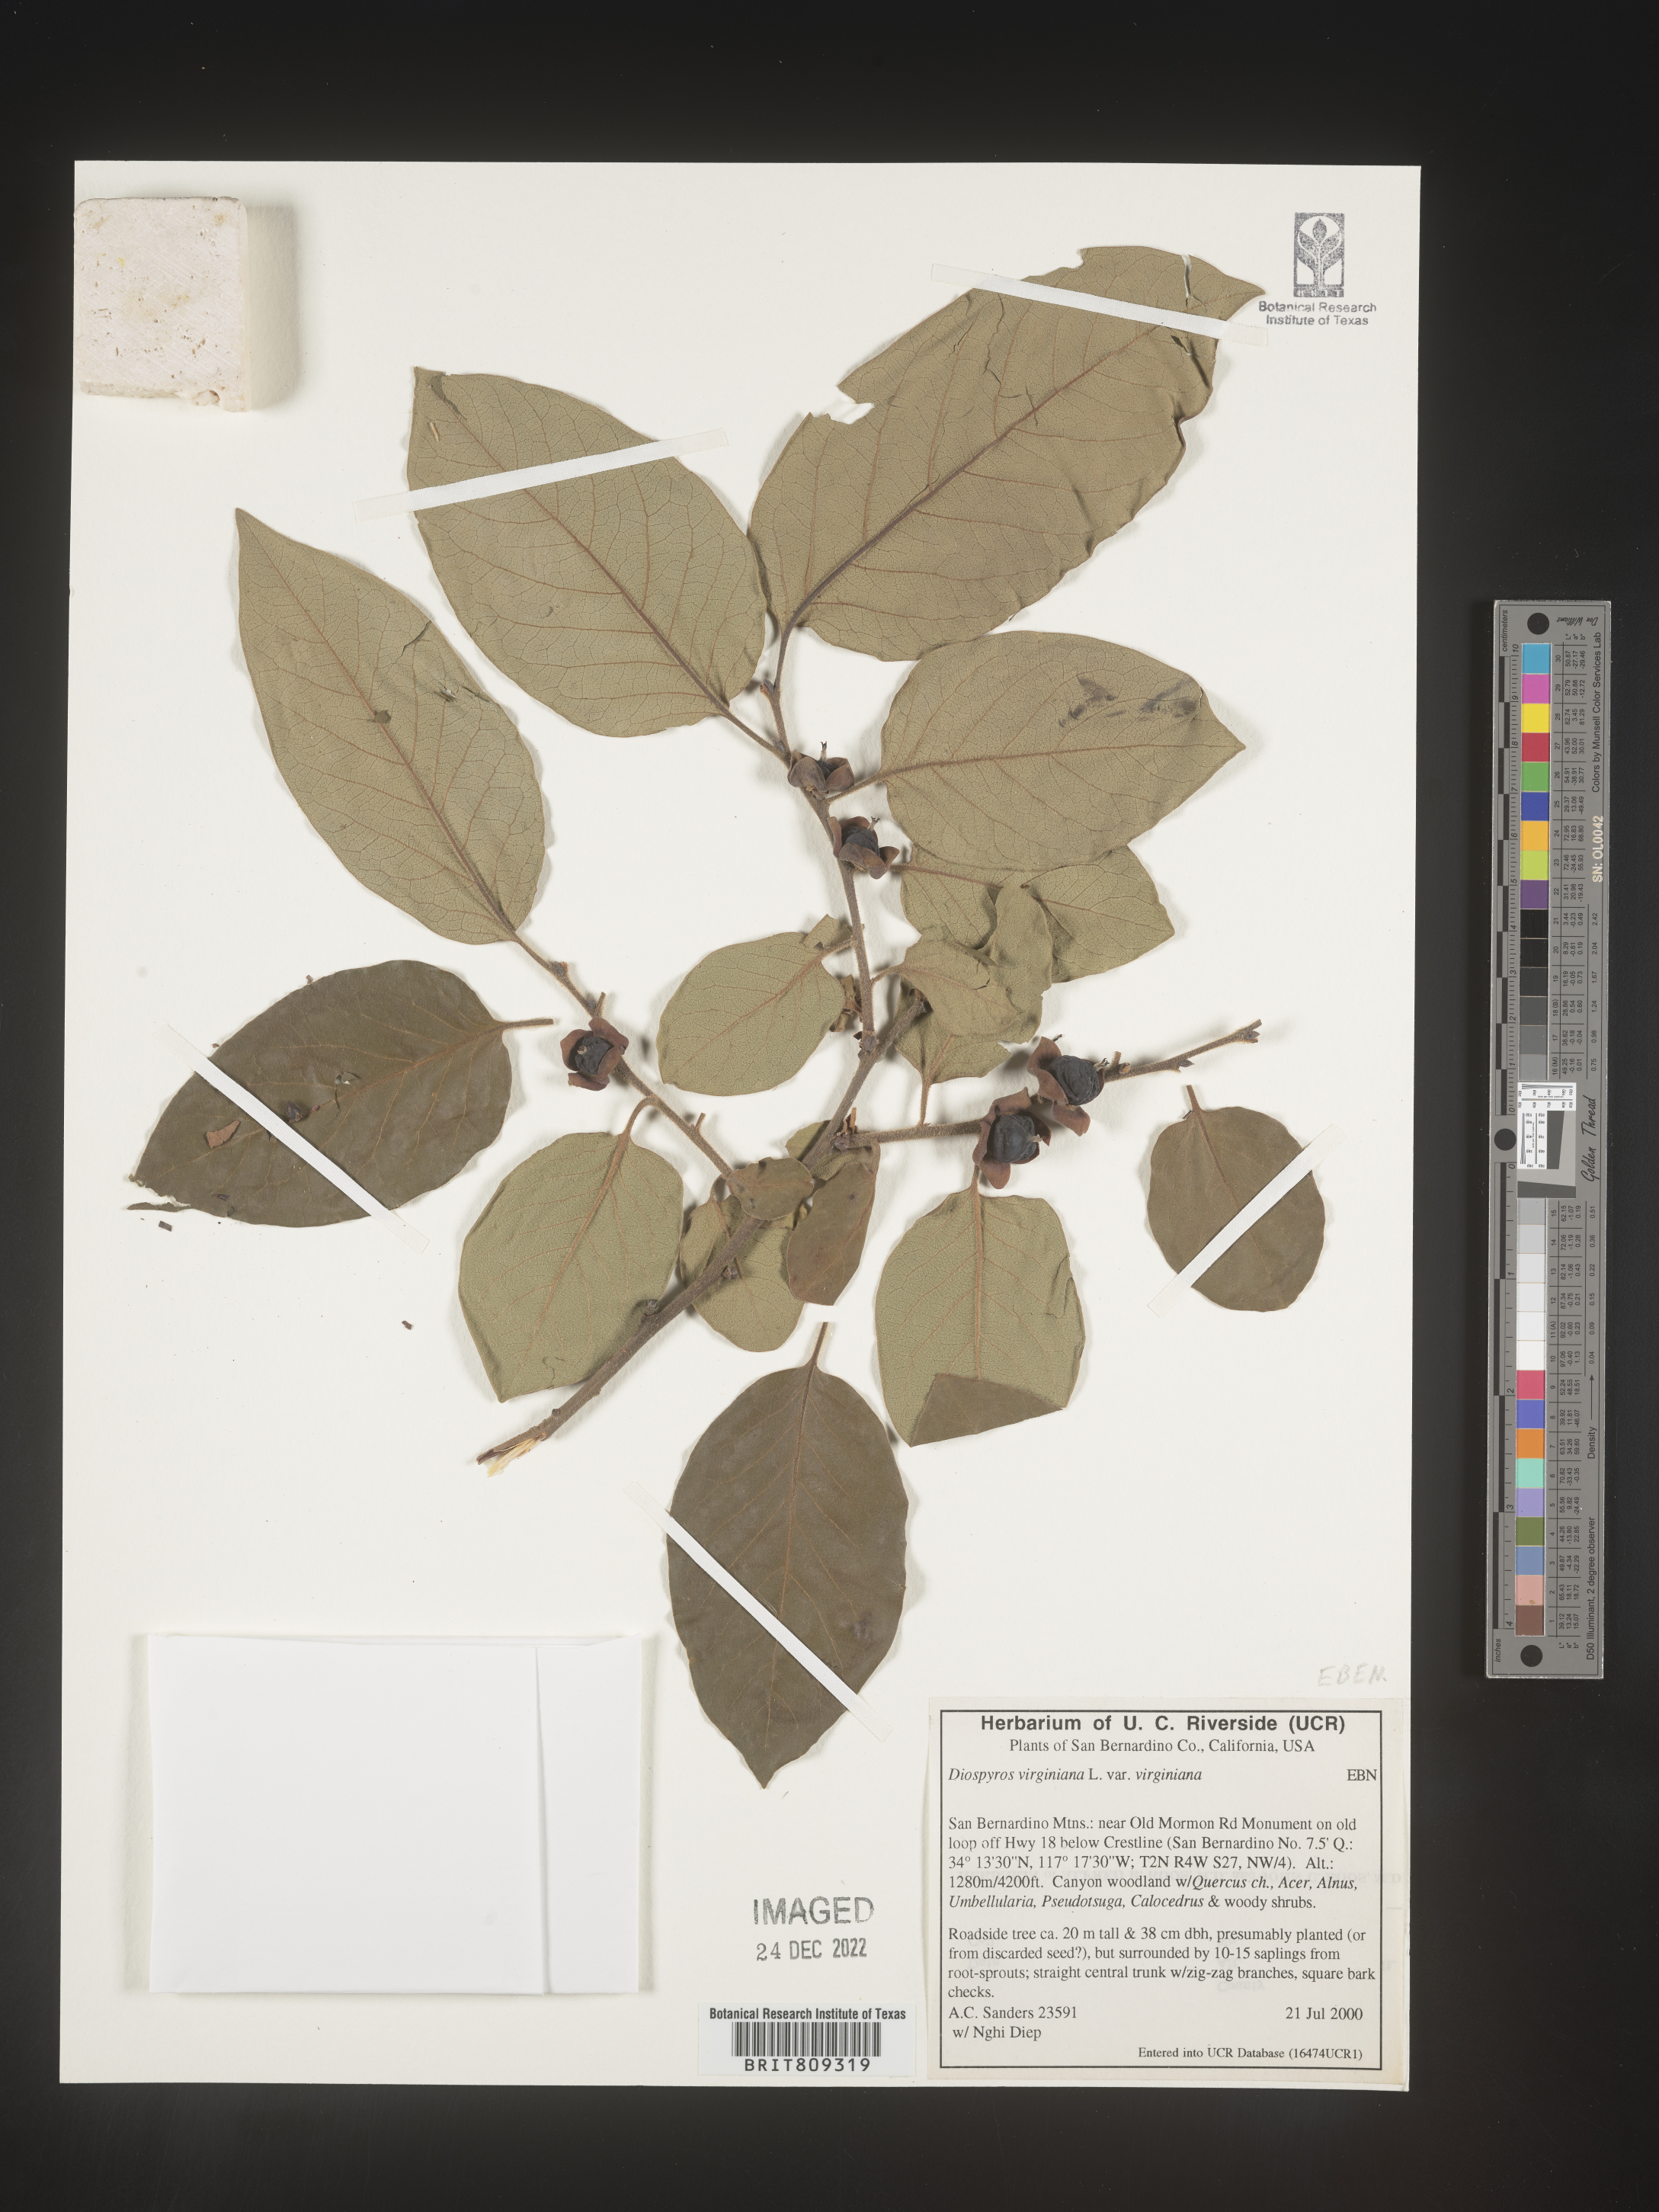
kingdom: Plantae
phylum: Tracheophyta
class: Magnoliopsida
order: Ericales
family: Ebenaceae
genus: Diospyros
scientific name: Diospyros virginiana
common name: Persimmon
